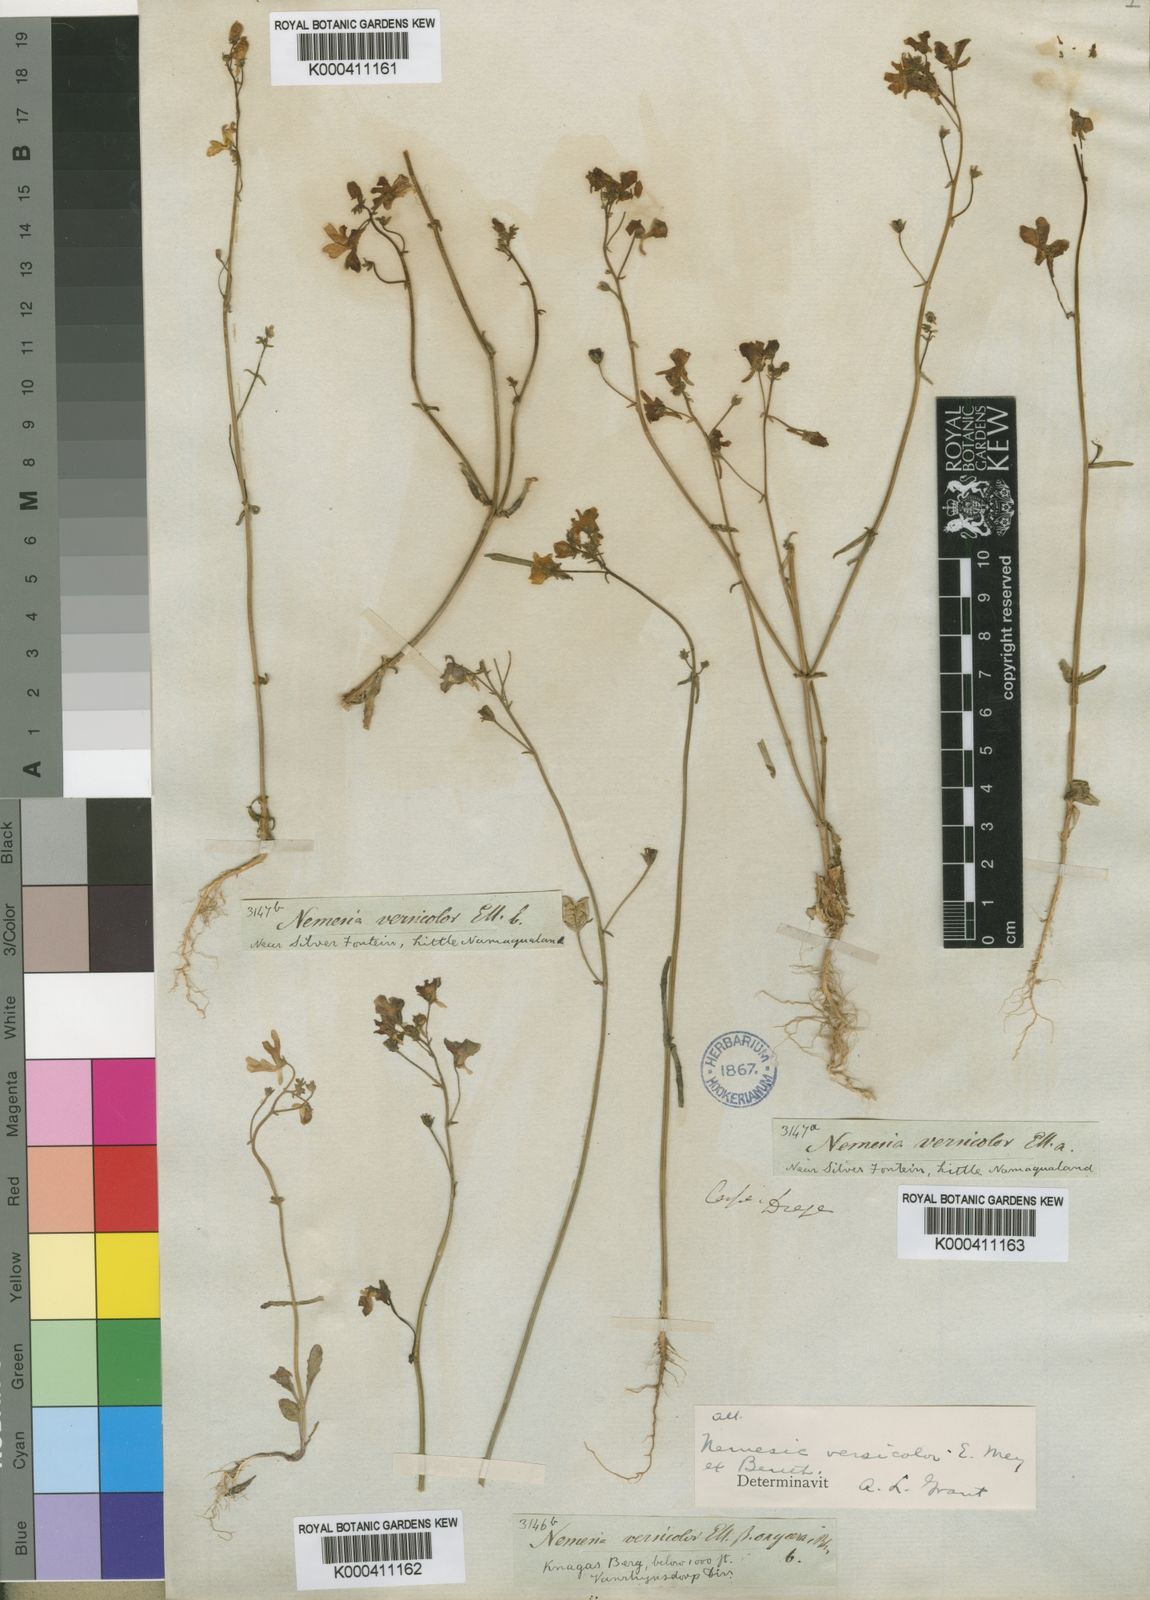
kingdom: Plantae
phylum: Tracheophyta
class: Magnoliopsida
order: Lamiales
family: Scrophulariaceae
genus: Nemesia
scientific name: Nemesia versicolor
